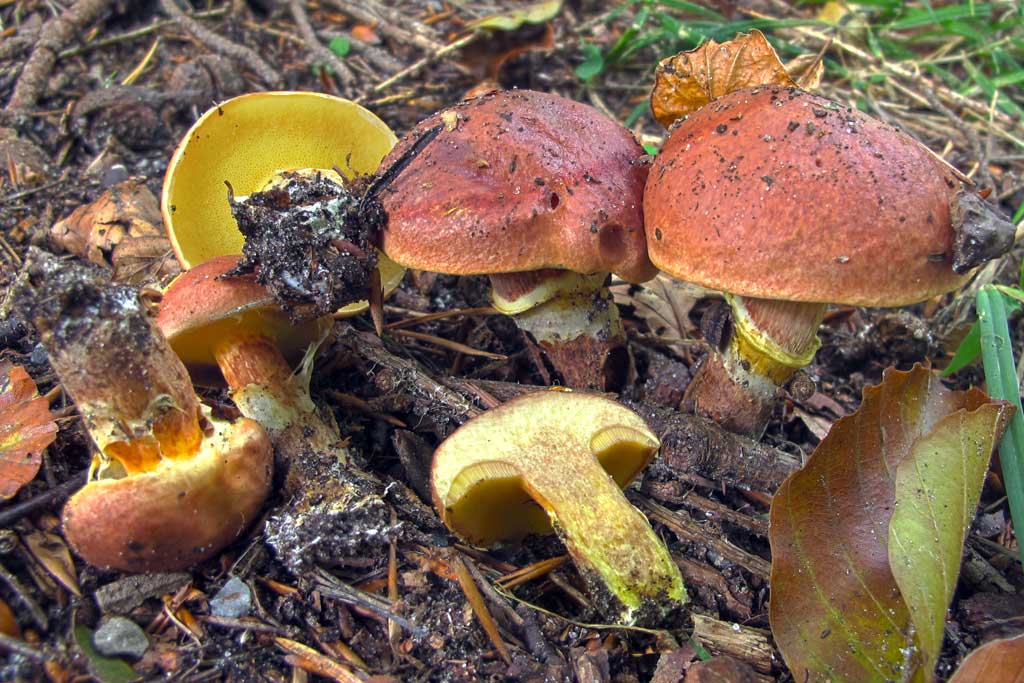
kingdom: Fungi
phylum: Basidiomycota
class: Agaricomycetes
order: Boletales
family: Suillaceae
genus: Suillus
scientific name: Suillus grevillei
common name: Larch bolete
